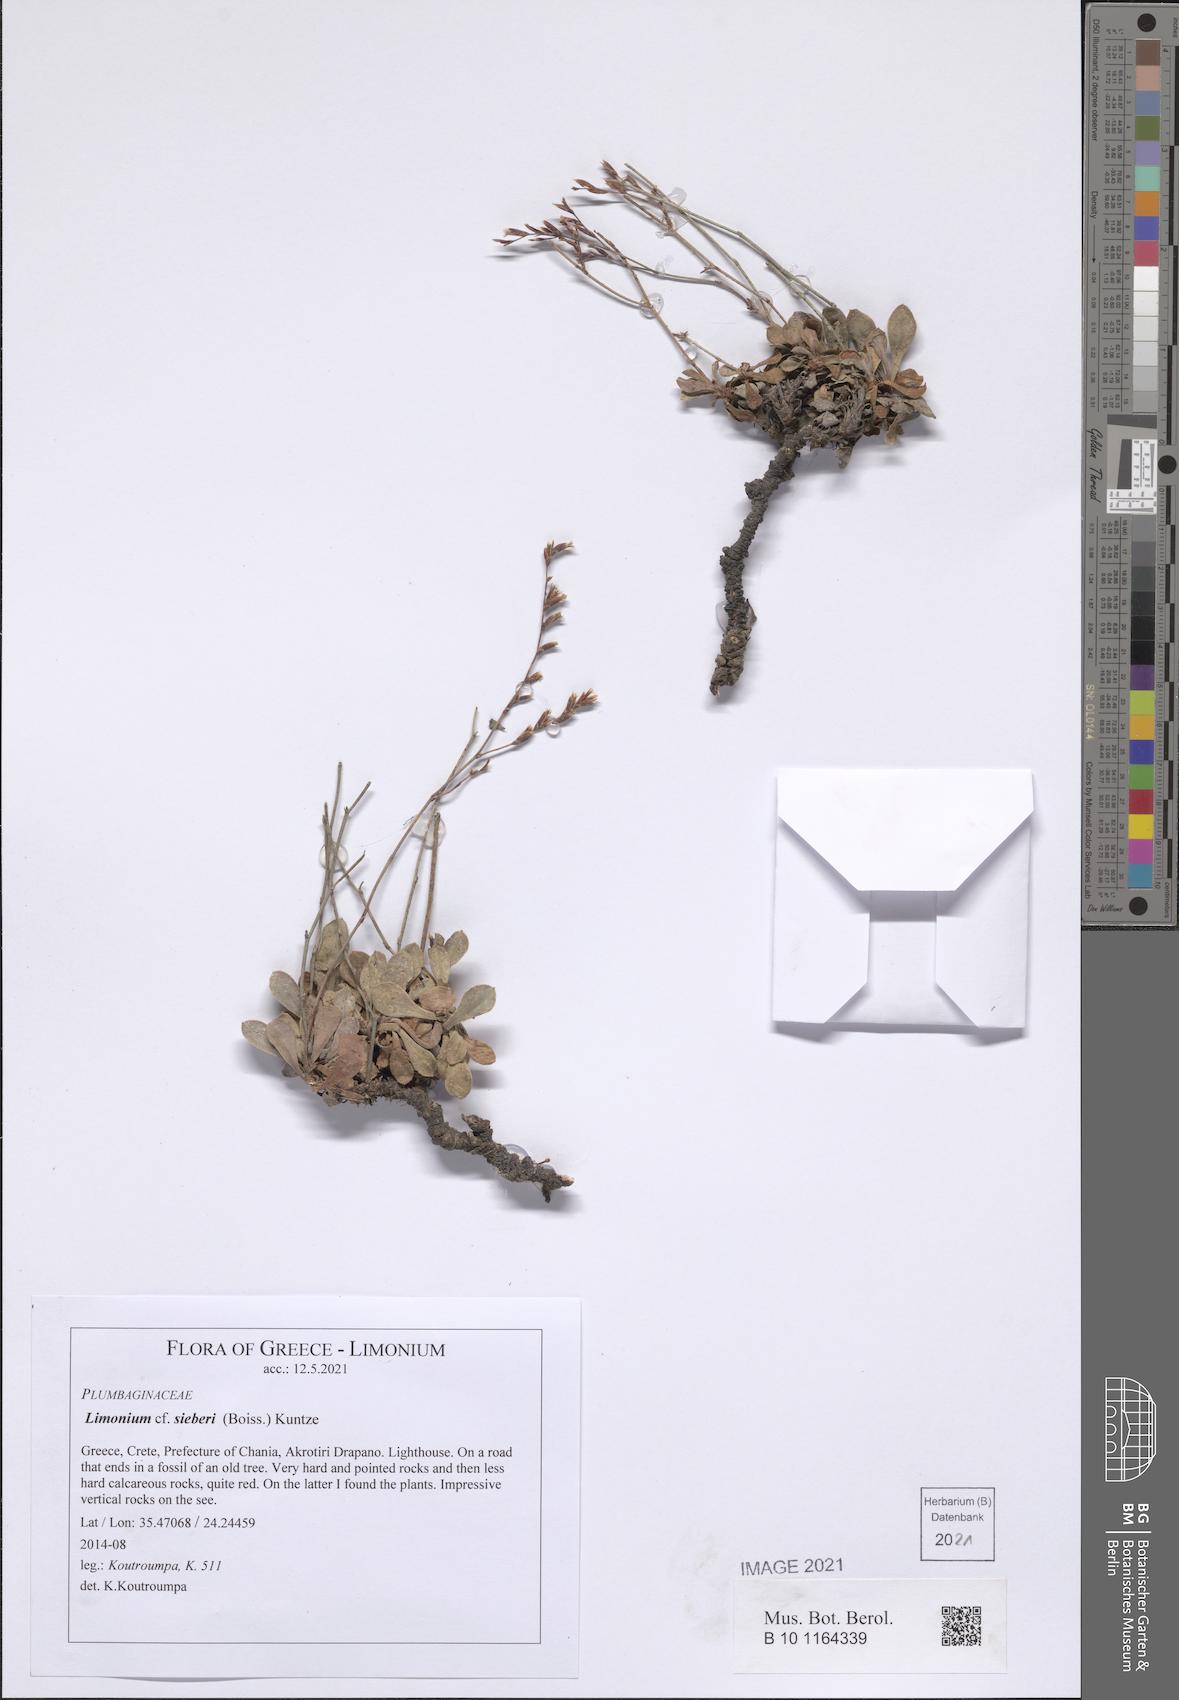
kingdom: Plantae
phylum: Tracheophyta
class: Magnoliopsida
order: Caryophyllales
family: Plumbaginaceae
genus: Limonium
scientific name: Limonium sieberi
